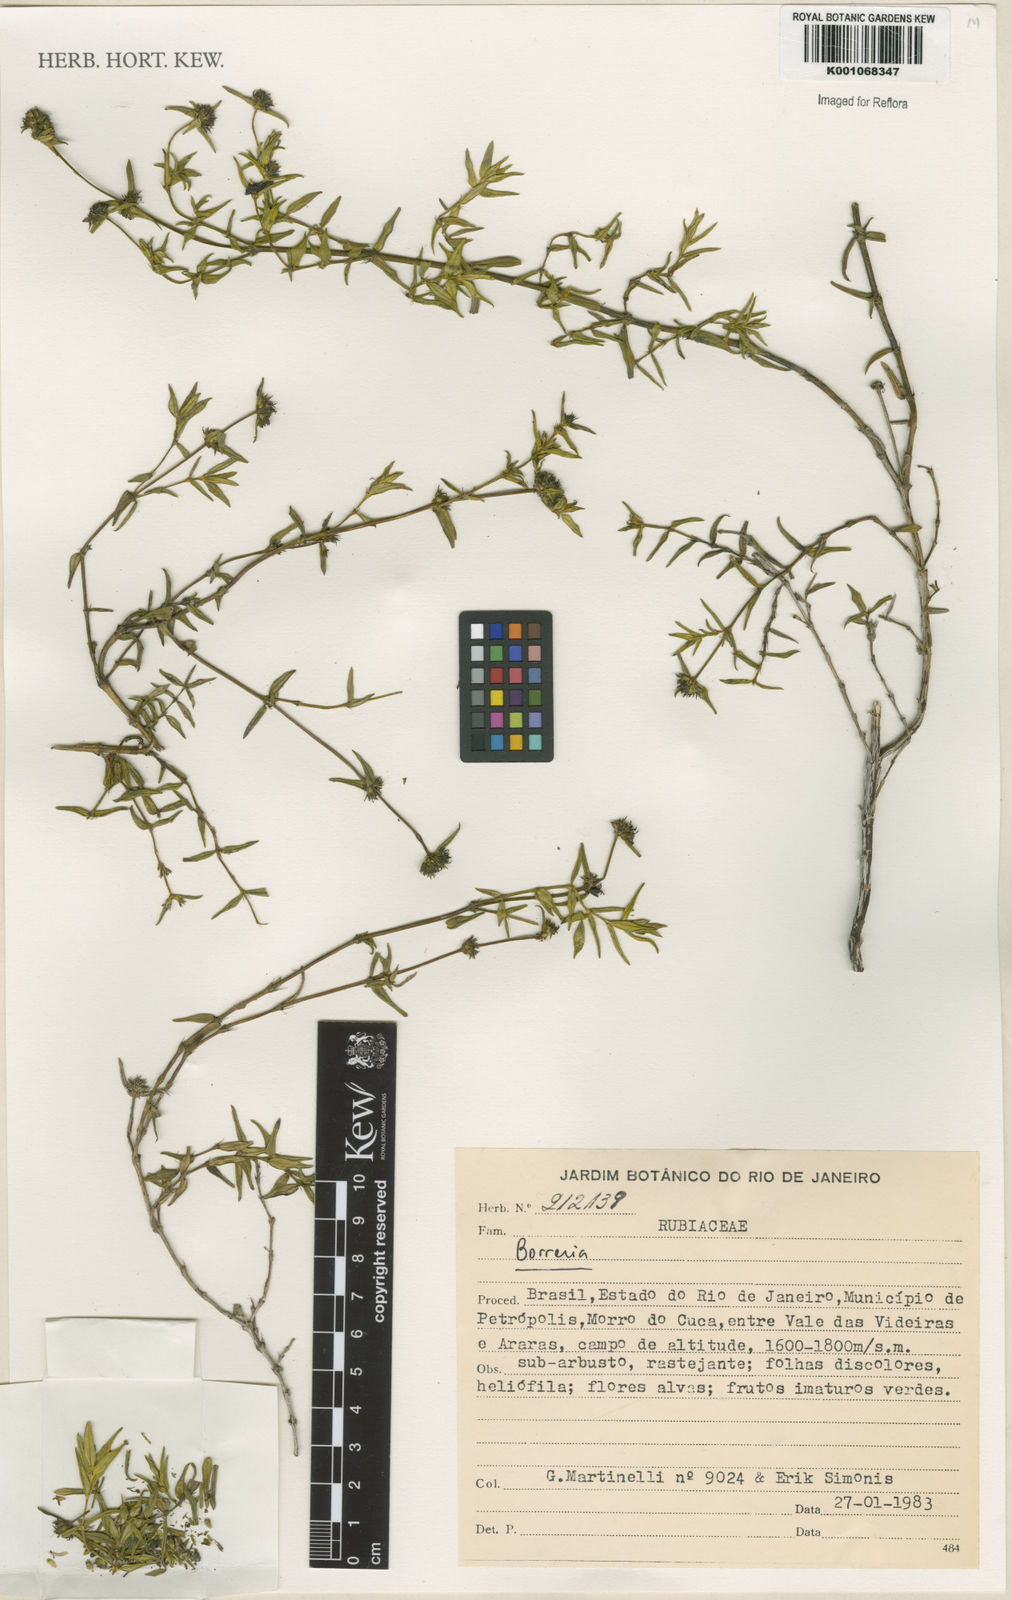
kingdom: Plantae
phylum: Tracheophyta
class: Magnoliopsida
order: Gentianales
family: Rubiaceae
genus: Spermacoce
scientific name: Spermacoce
